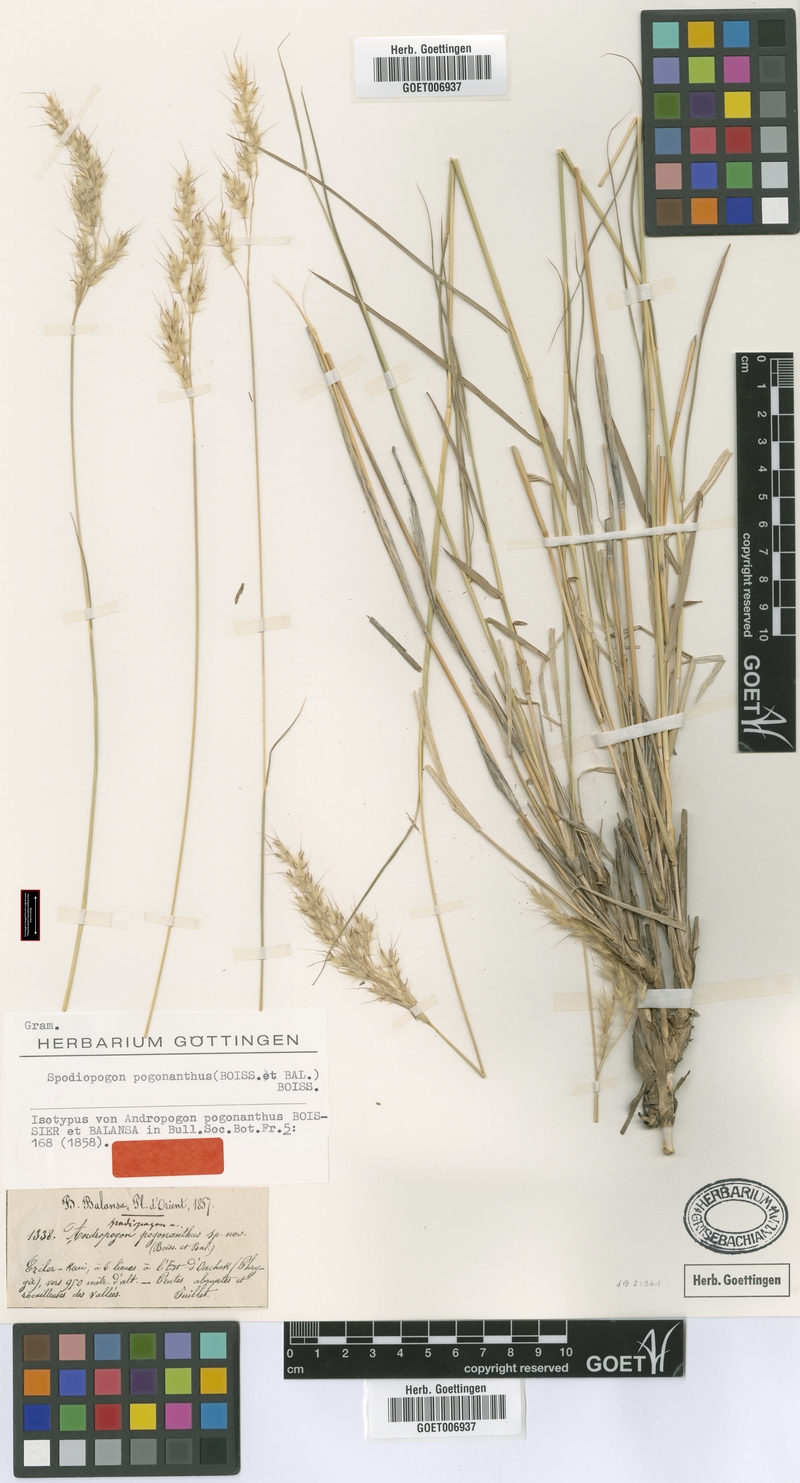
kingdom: Plantae
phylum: Tracheophyta
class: Liliopsida
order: Poales
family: Poaceae
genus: Spodiopogon
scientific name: Spodiopogon pogonanthus
